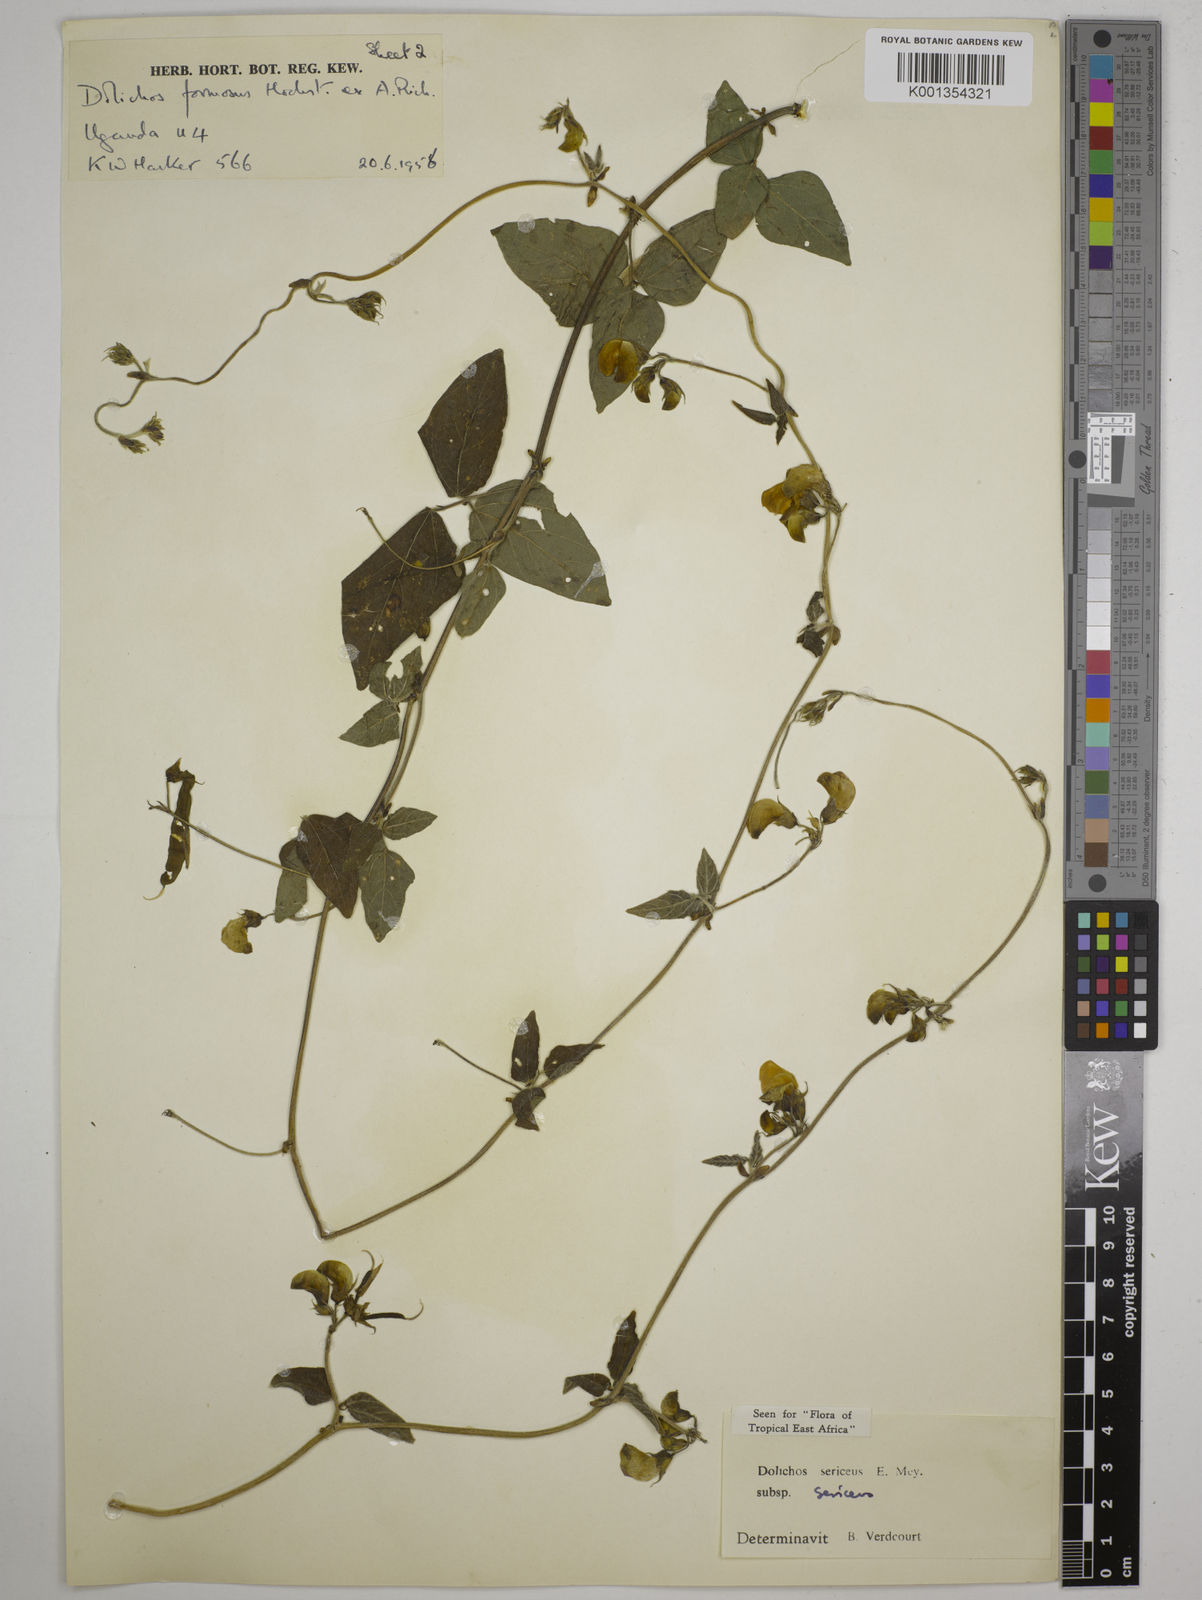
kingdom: Plantae
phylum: Tracheophyta
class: Magnoliopsida
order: Fabales
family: Fabaceae
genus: Dolichos
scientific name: Dolichos sericeus
